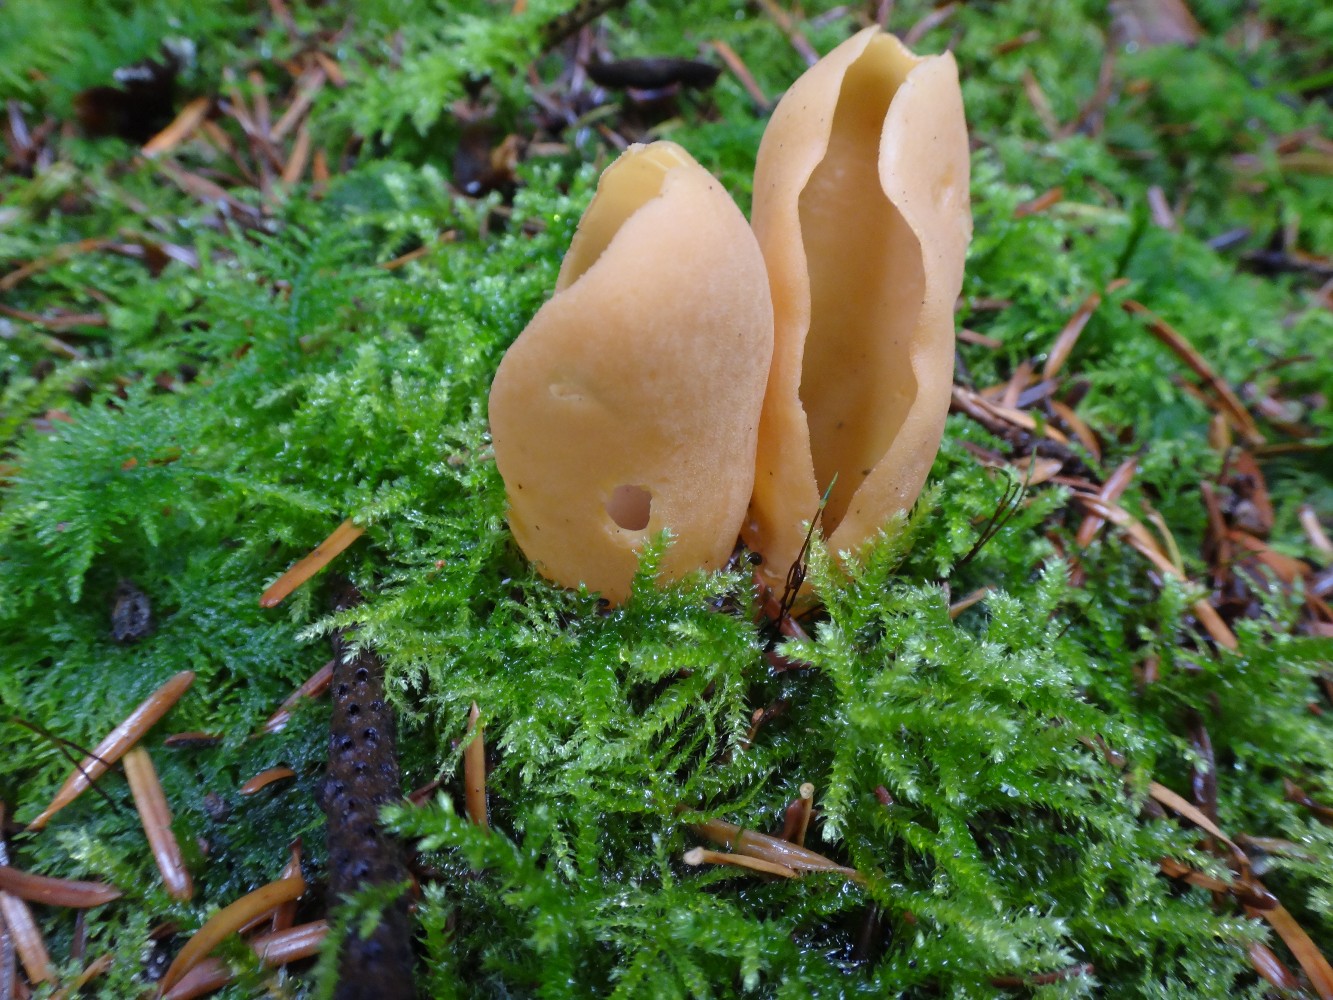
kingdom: Fungi
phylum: Ascomycota
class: Pezizomycetes
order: Pezizales
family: Otideaceae
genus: Otidea
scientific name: Otidea onotica
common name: æsel-ørebæger
